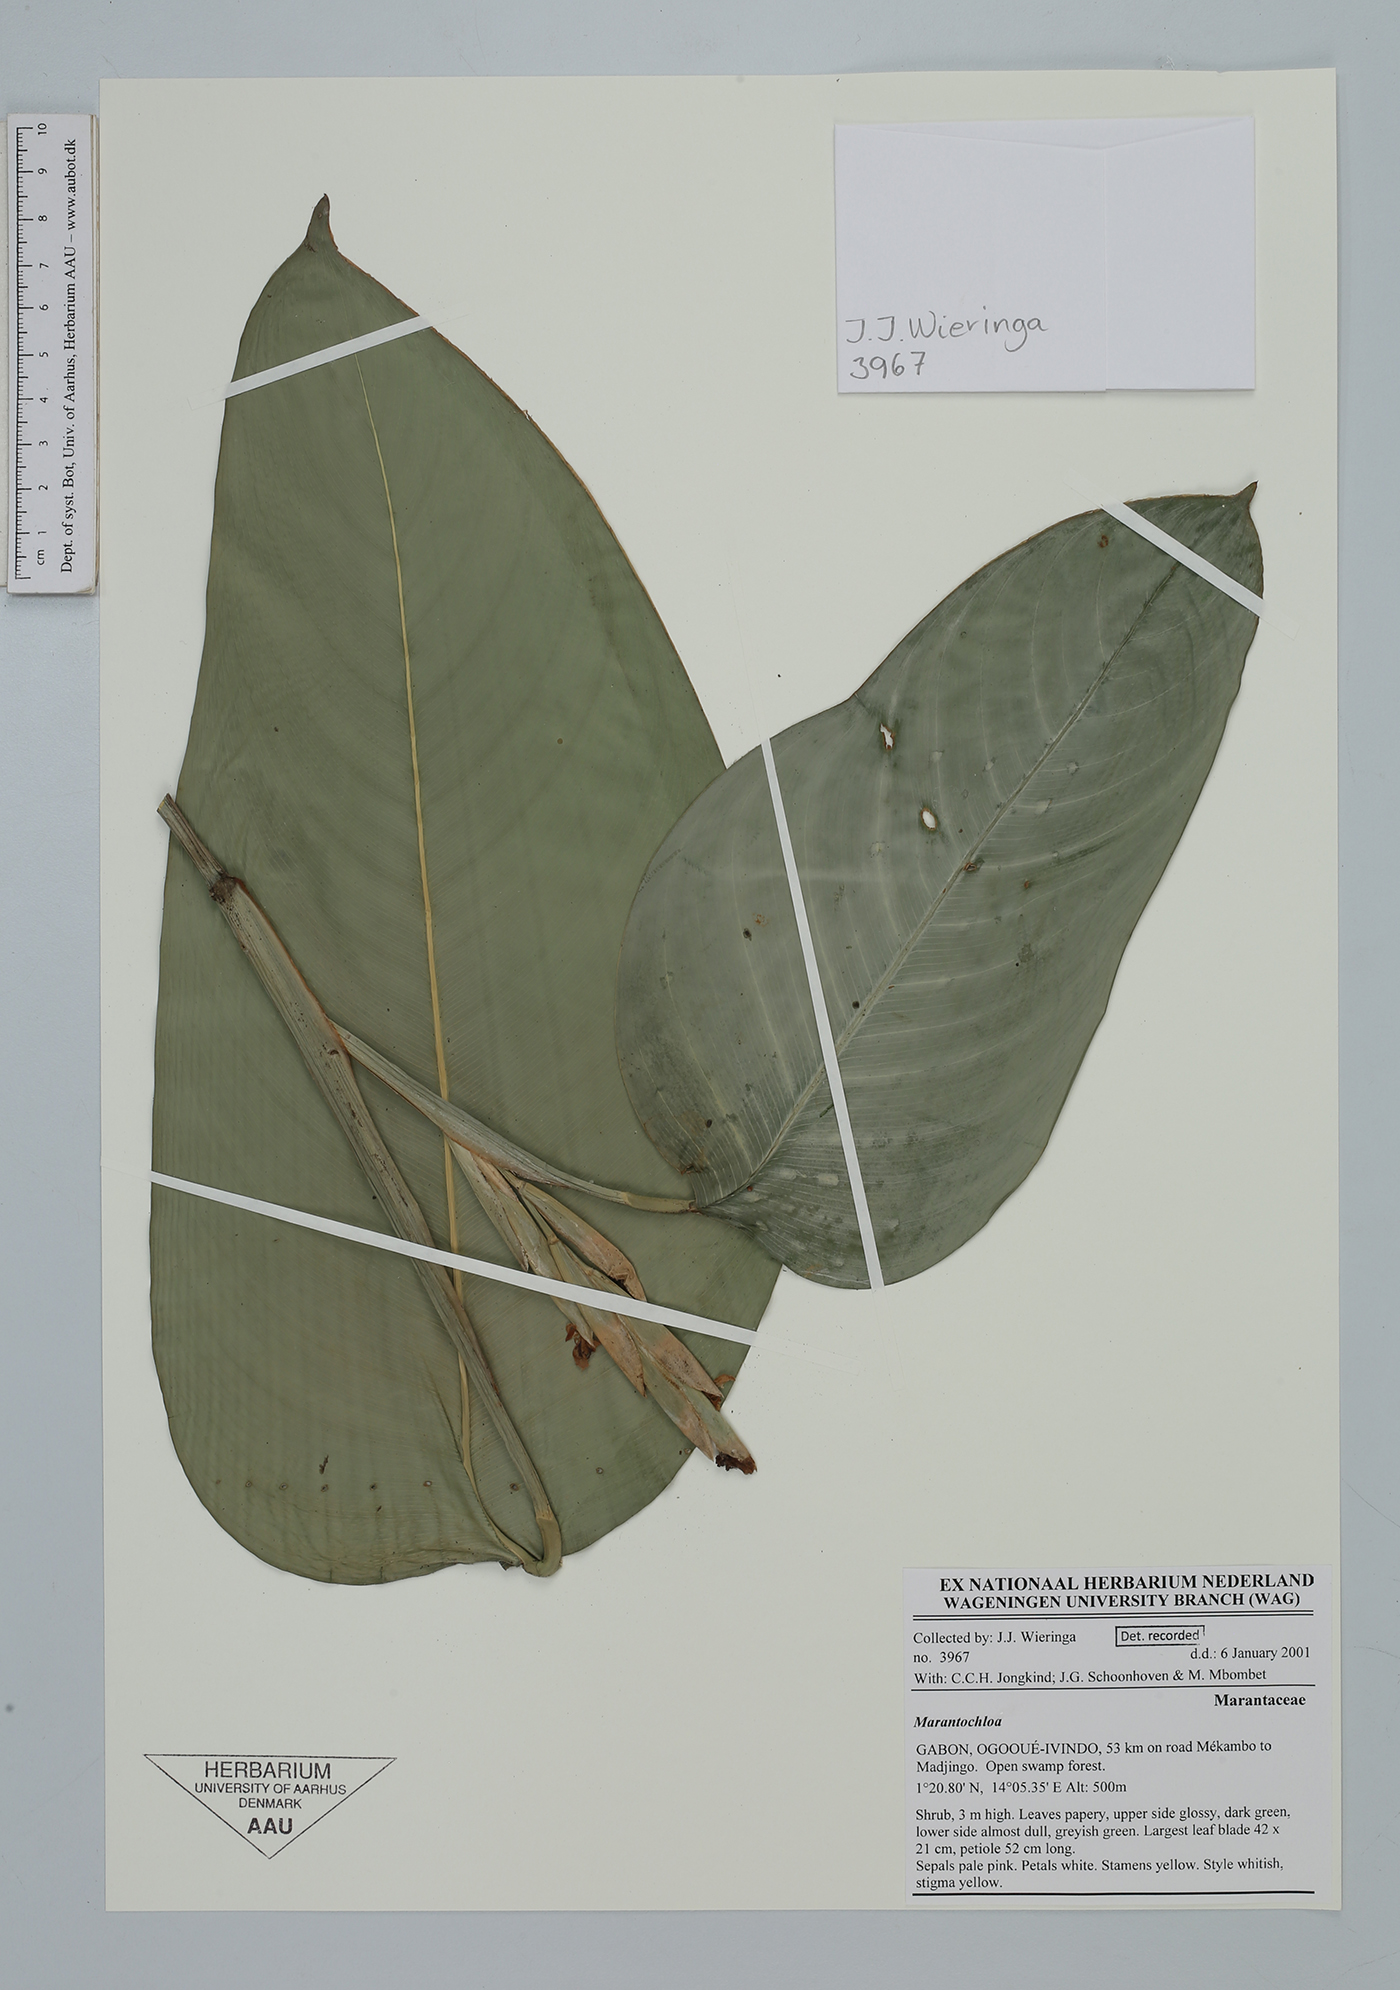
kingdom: Plantae
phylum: Tracheophyta
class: Liliopsida
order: Zingiberales
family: Marantaceae
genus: Marantochloa
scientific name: Marantochloa
